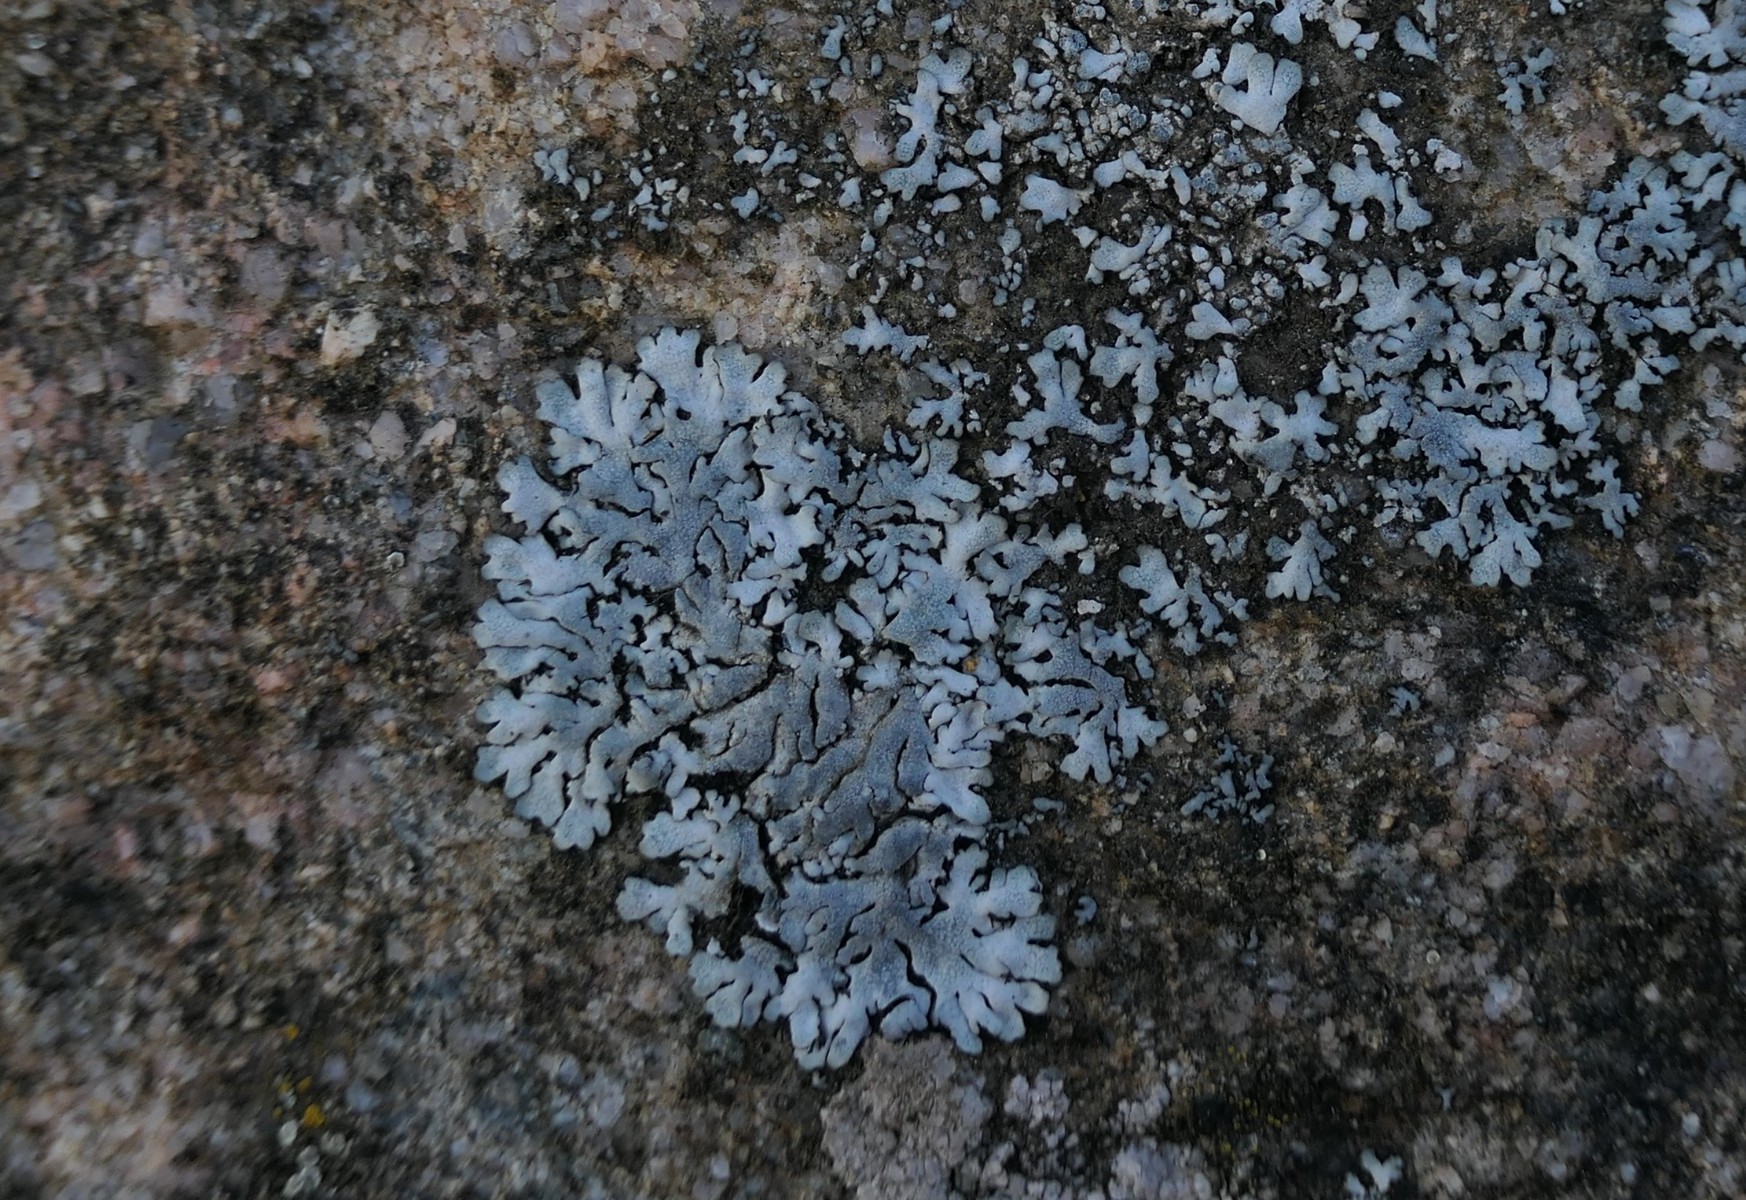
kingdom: Fungi
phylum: Ascomycota
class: Lecanoromycetes
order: Caliciales
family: Physciaceae
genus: Physcia
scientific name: Physcia caesia
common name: blågrå rosetlav
